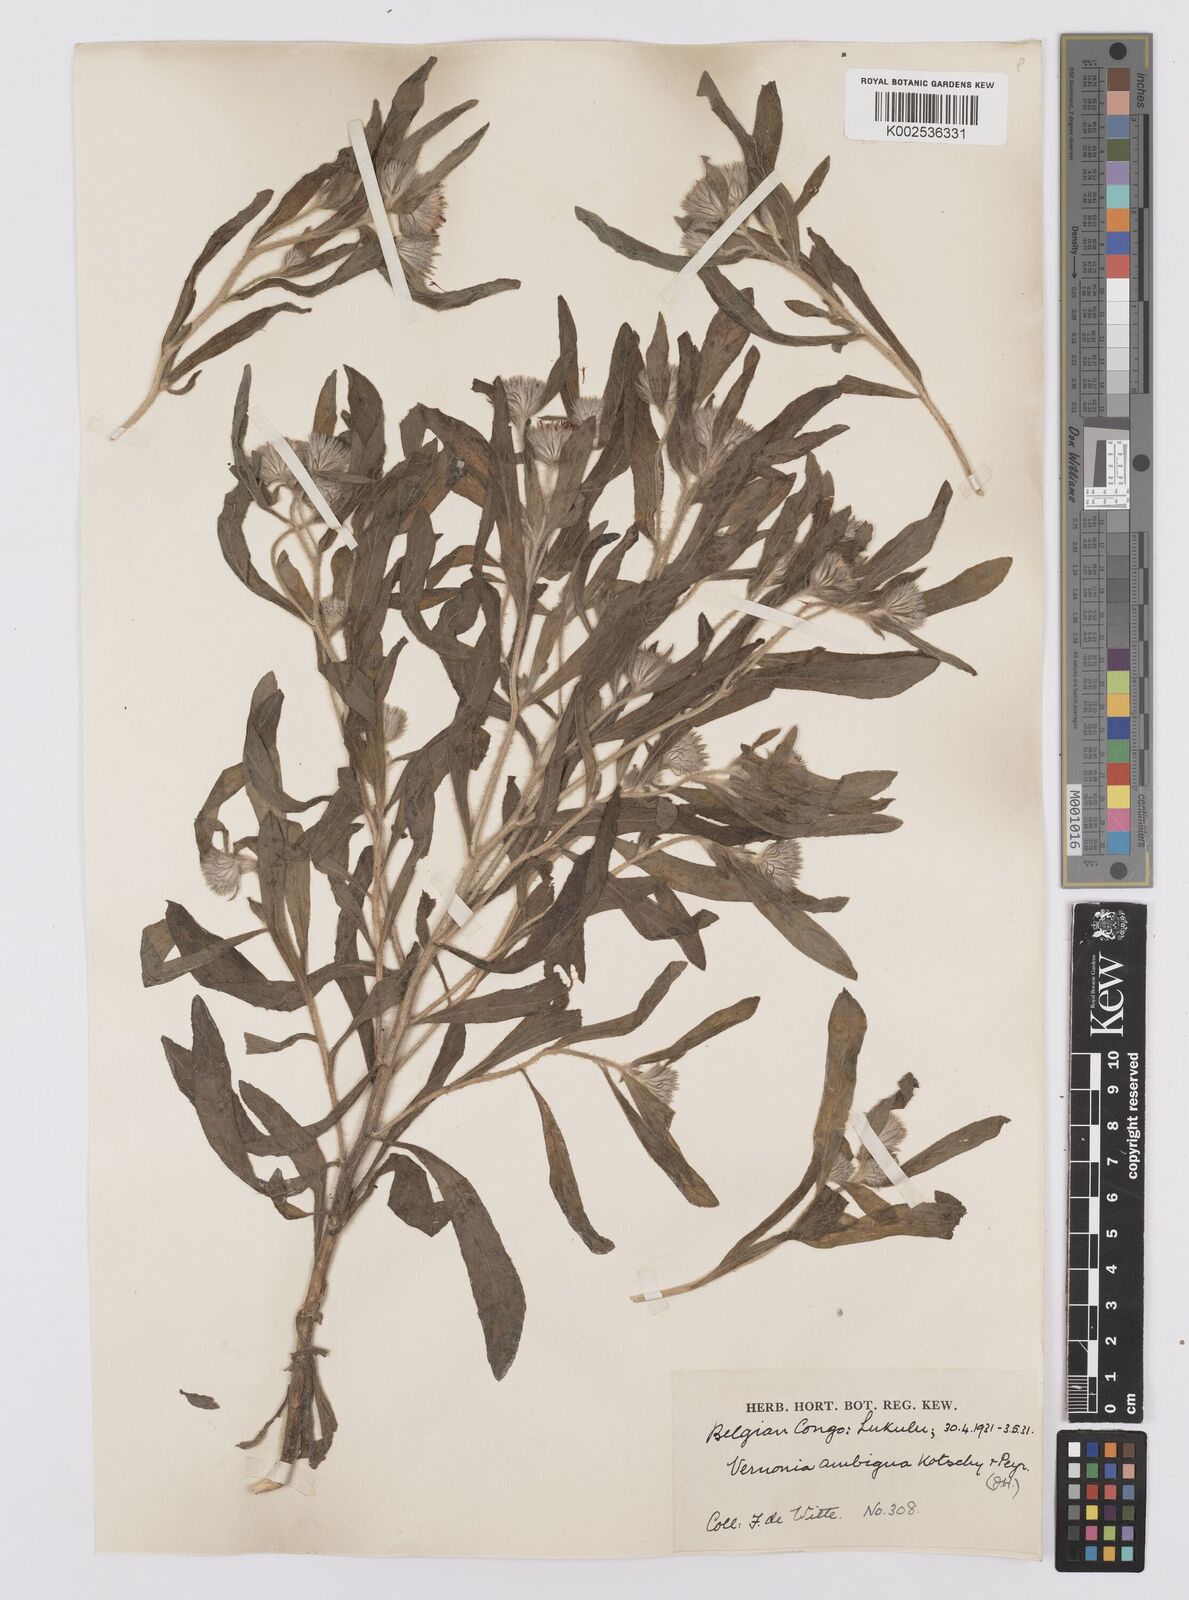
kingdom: Plantae
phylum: Tracheophyta
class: Magnoliopsida
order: Asterales
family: Asteraceae
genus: Vernoniastrum
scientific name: Vernoniastrum ambiguum
